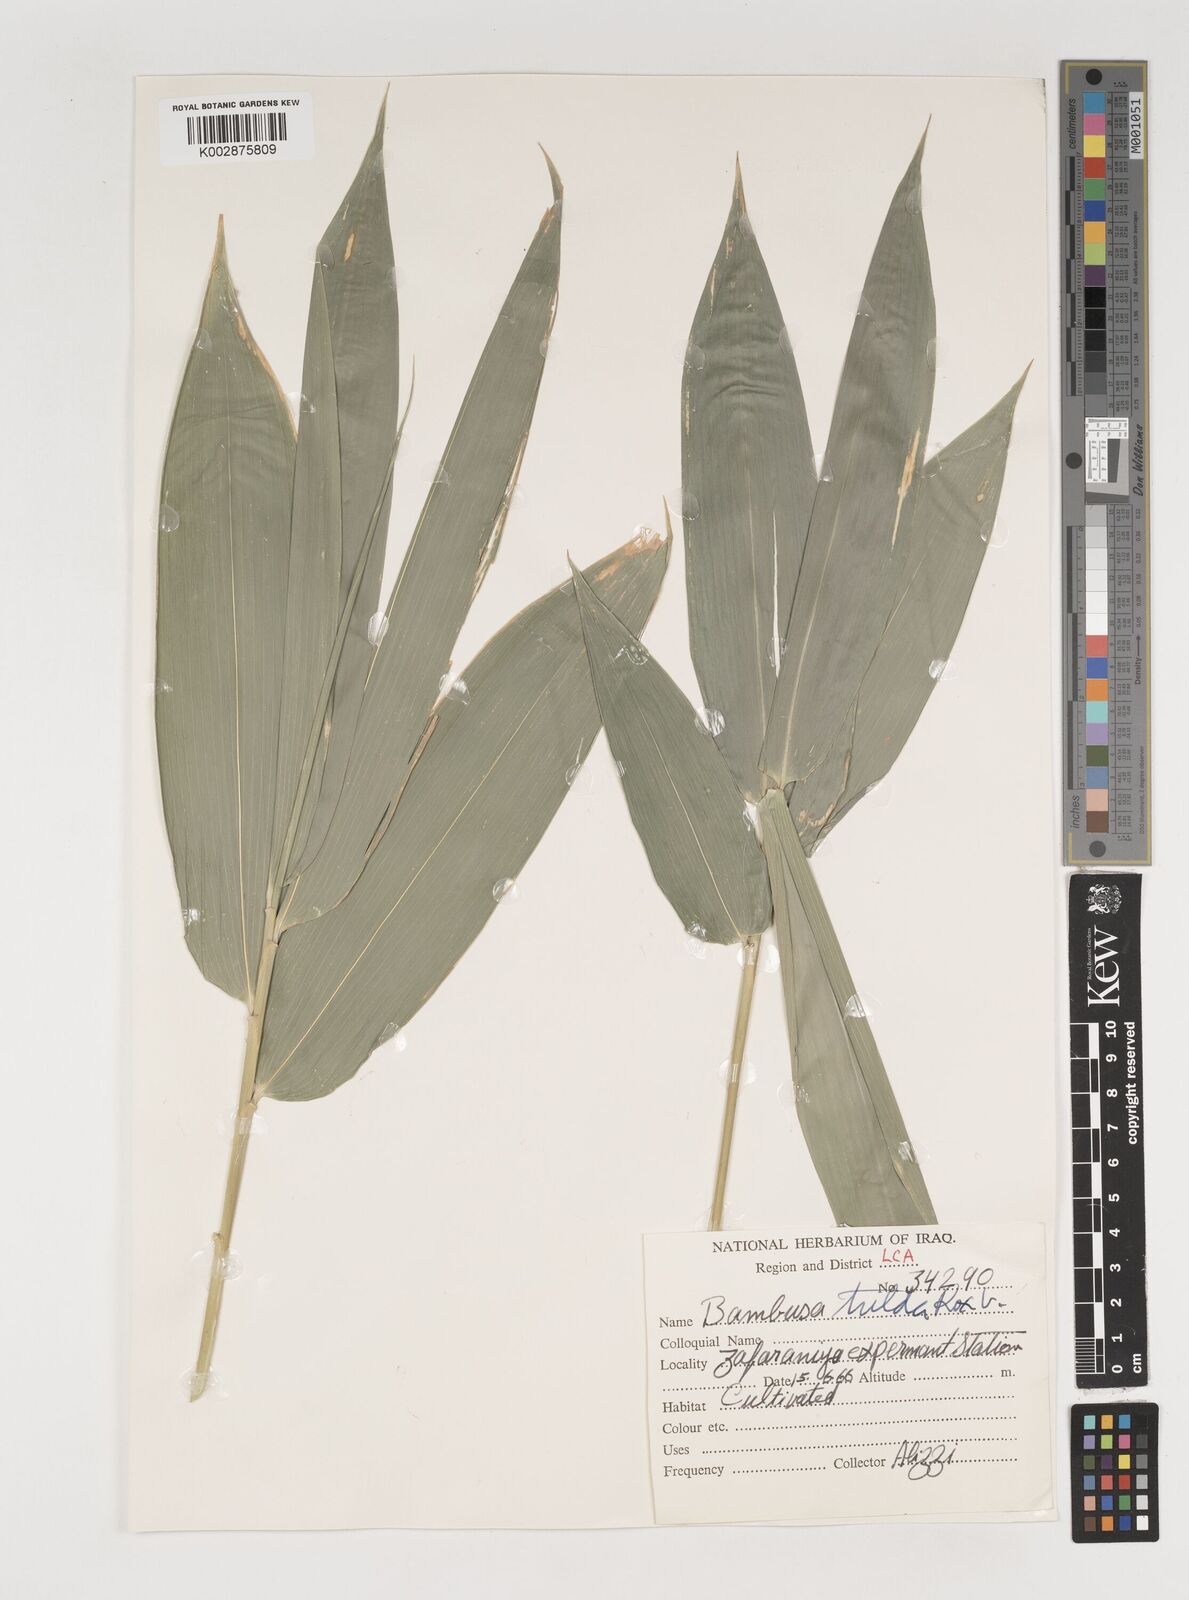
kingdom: Plantae
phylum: Tracheophyta
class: Liliopsida
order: Poales
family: Poaceae
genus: Bambusa
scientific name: Bambusa tulda
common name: Bengal bamboo
